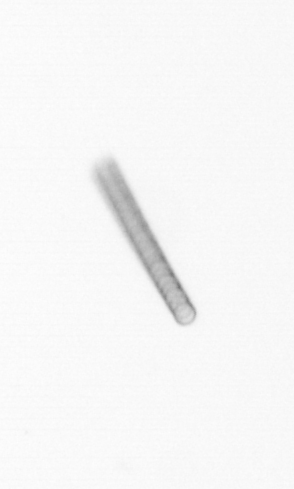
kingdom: Chromista
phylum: Ochrophyta
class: Bacillariophyceae
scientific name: Bacillariophyceae
